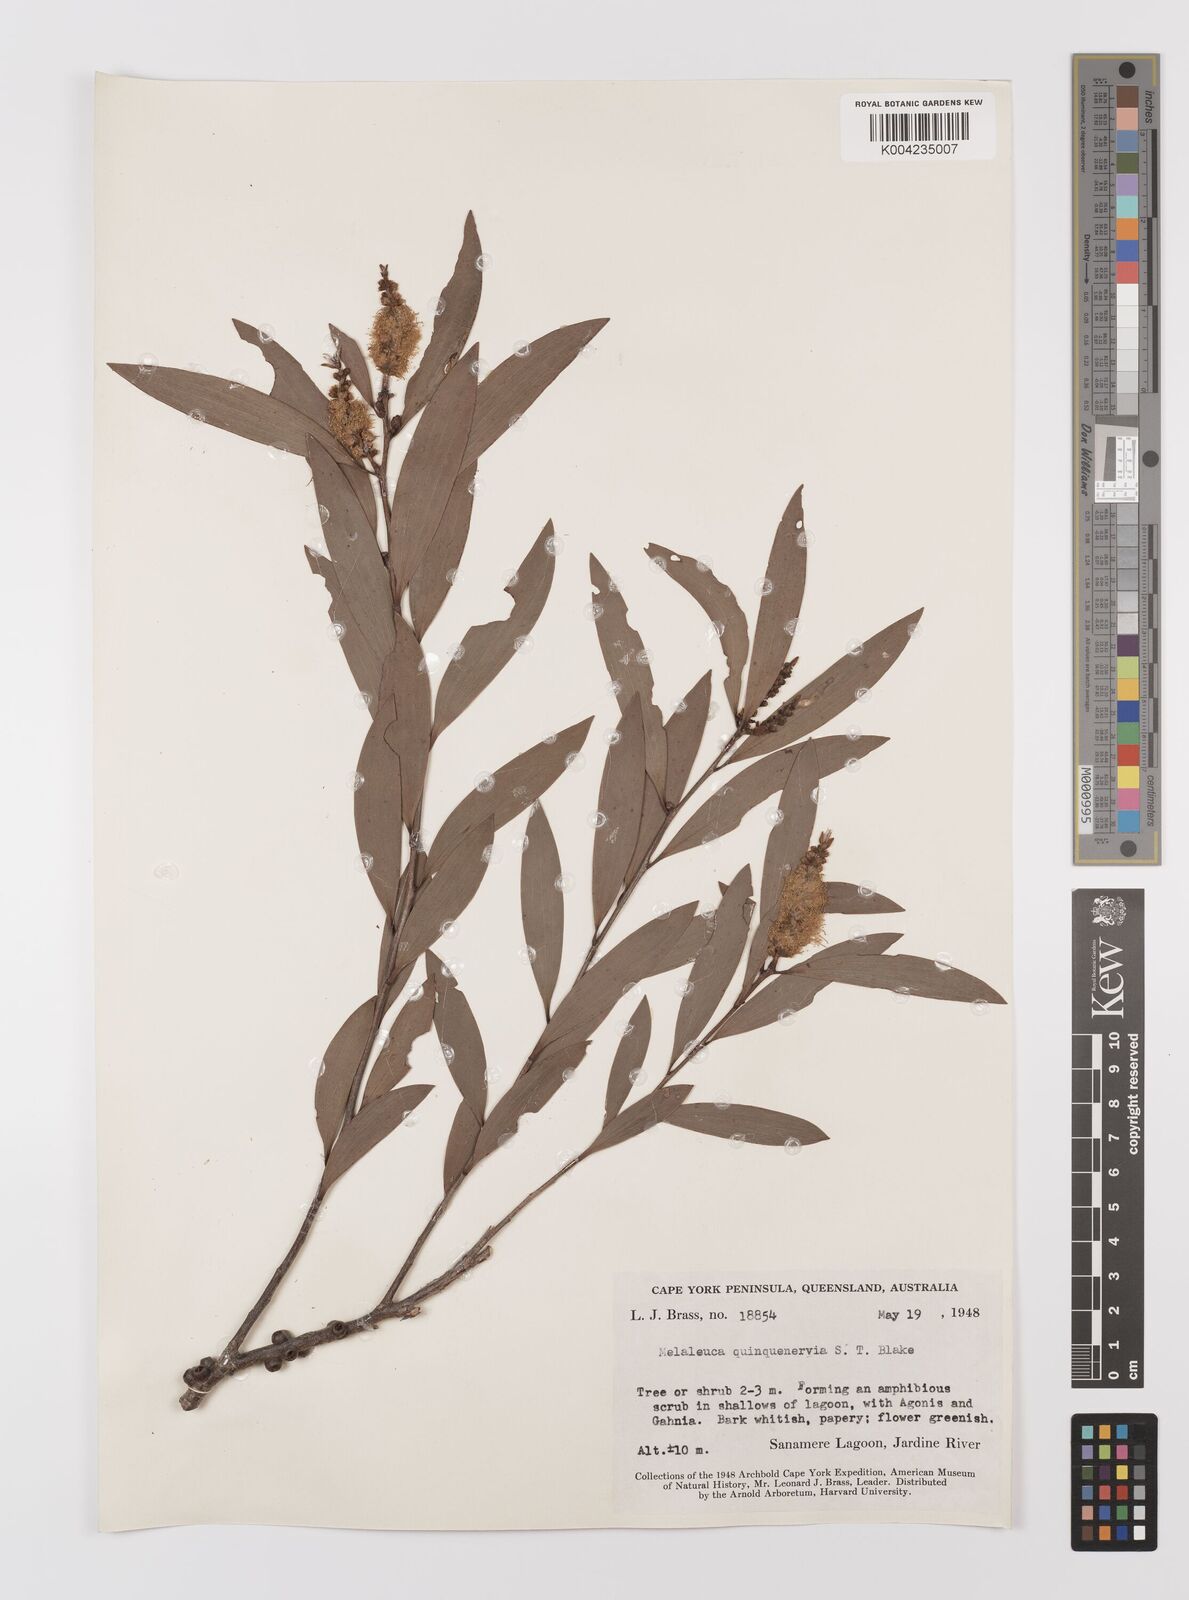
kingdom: Plantae
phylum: Tracheophyta
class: Magnoliopsida
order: Myrtales
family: Myrtaceae
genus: Melaleuca
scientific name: Melaleuca quinquenervia
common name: Punktree
